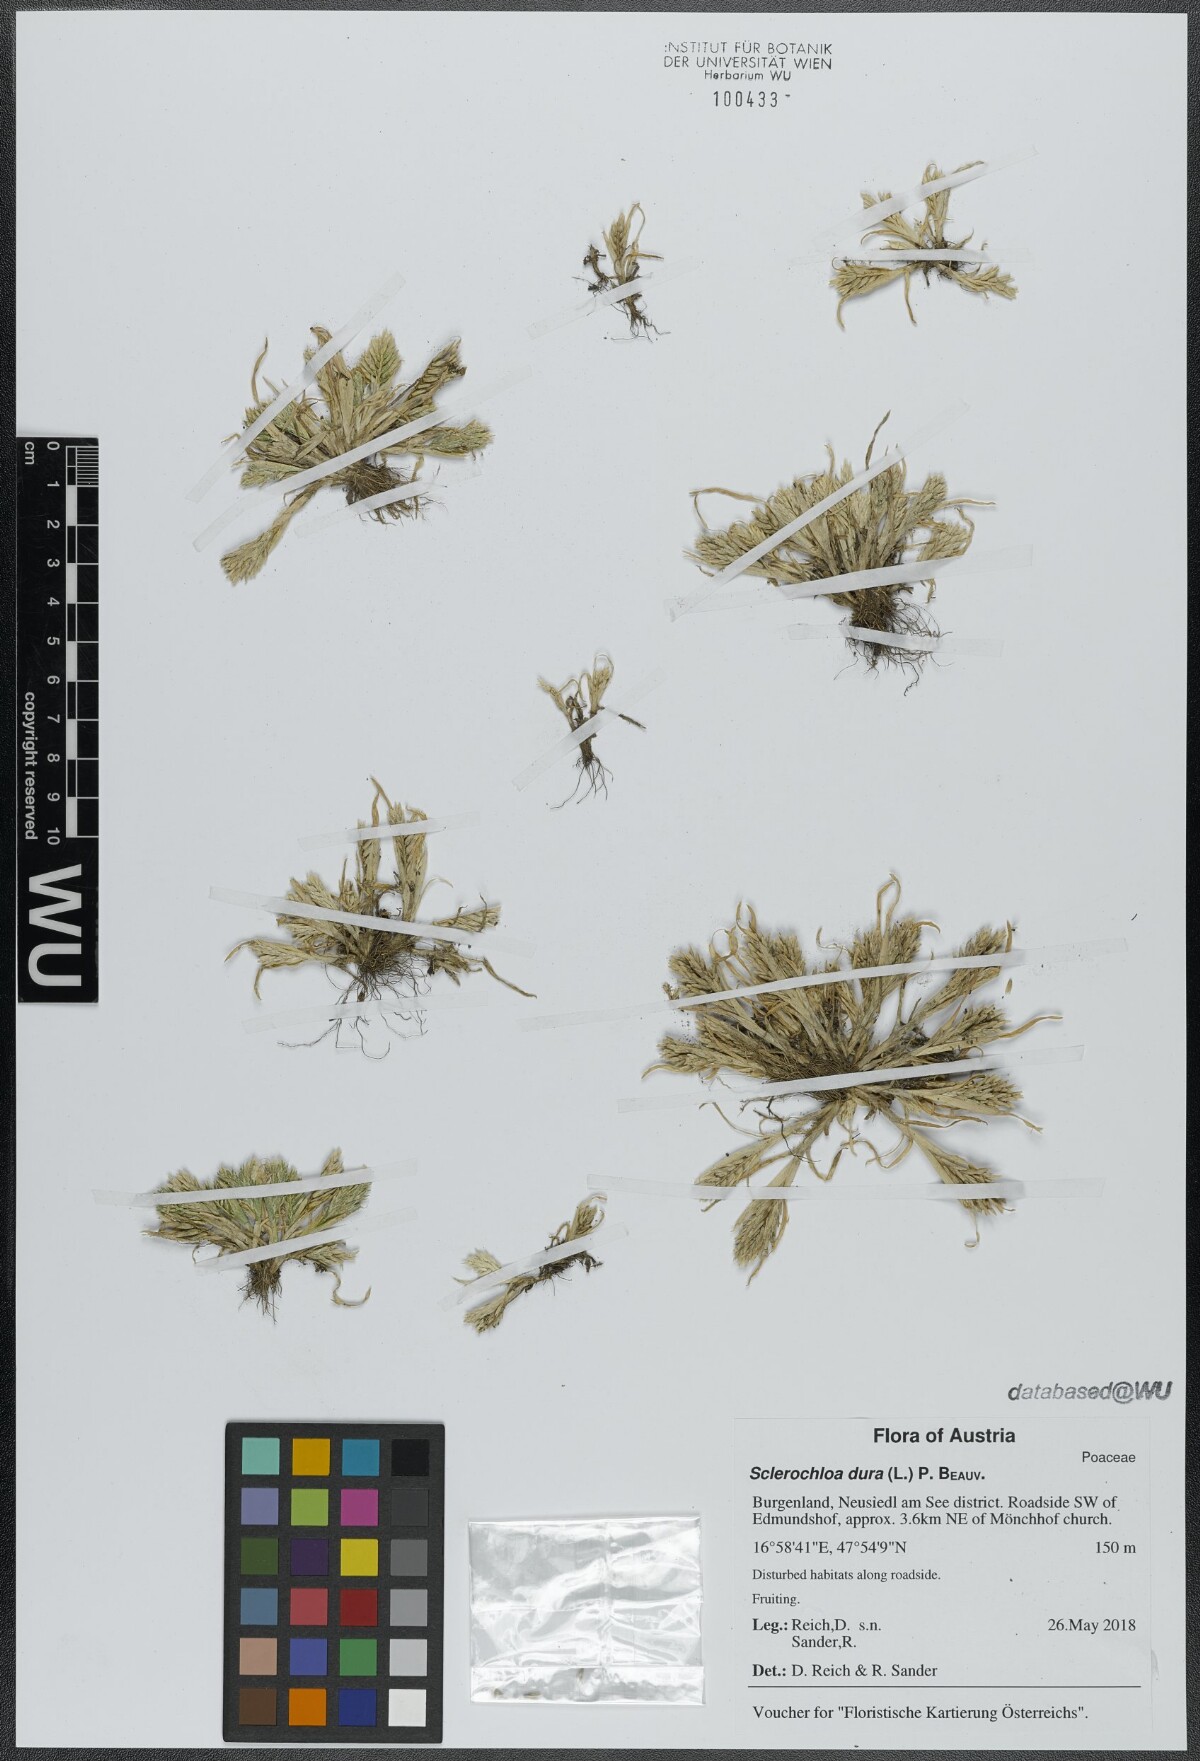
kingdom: Plantae
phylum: Tracheophyta
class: Liliopsida
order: Poales
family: Poaceae
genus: Sclerochloa
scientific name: Sclerochloa dura
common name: Common hardgrass
